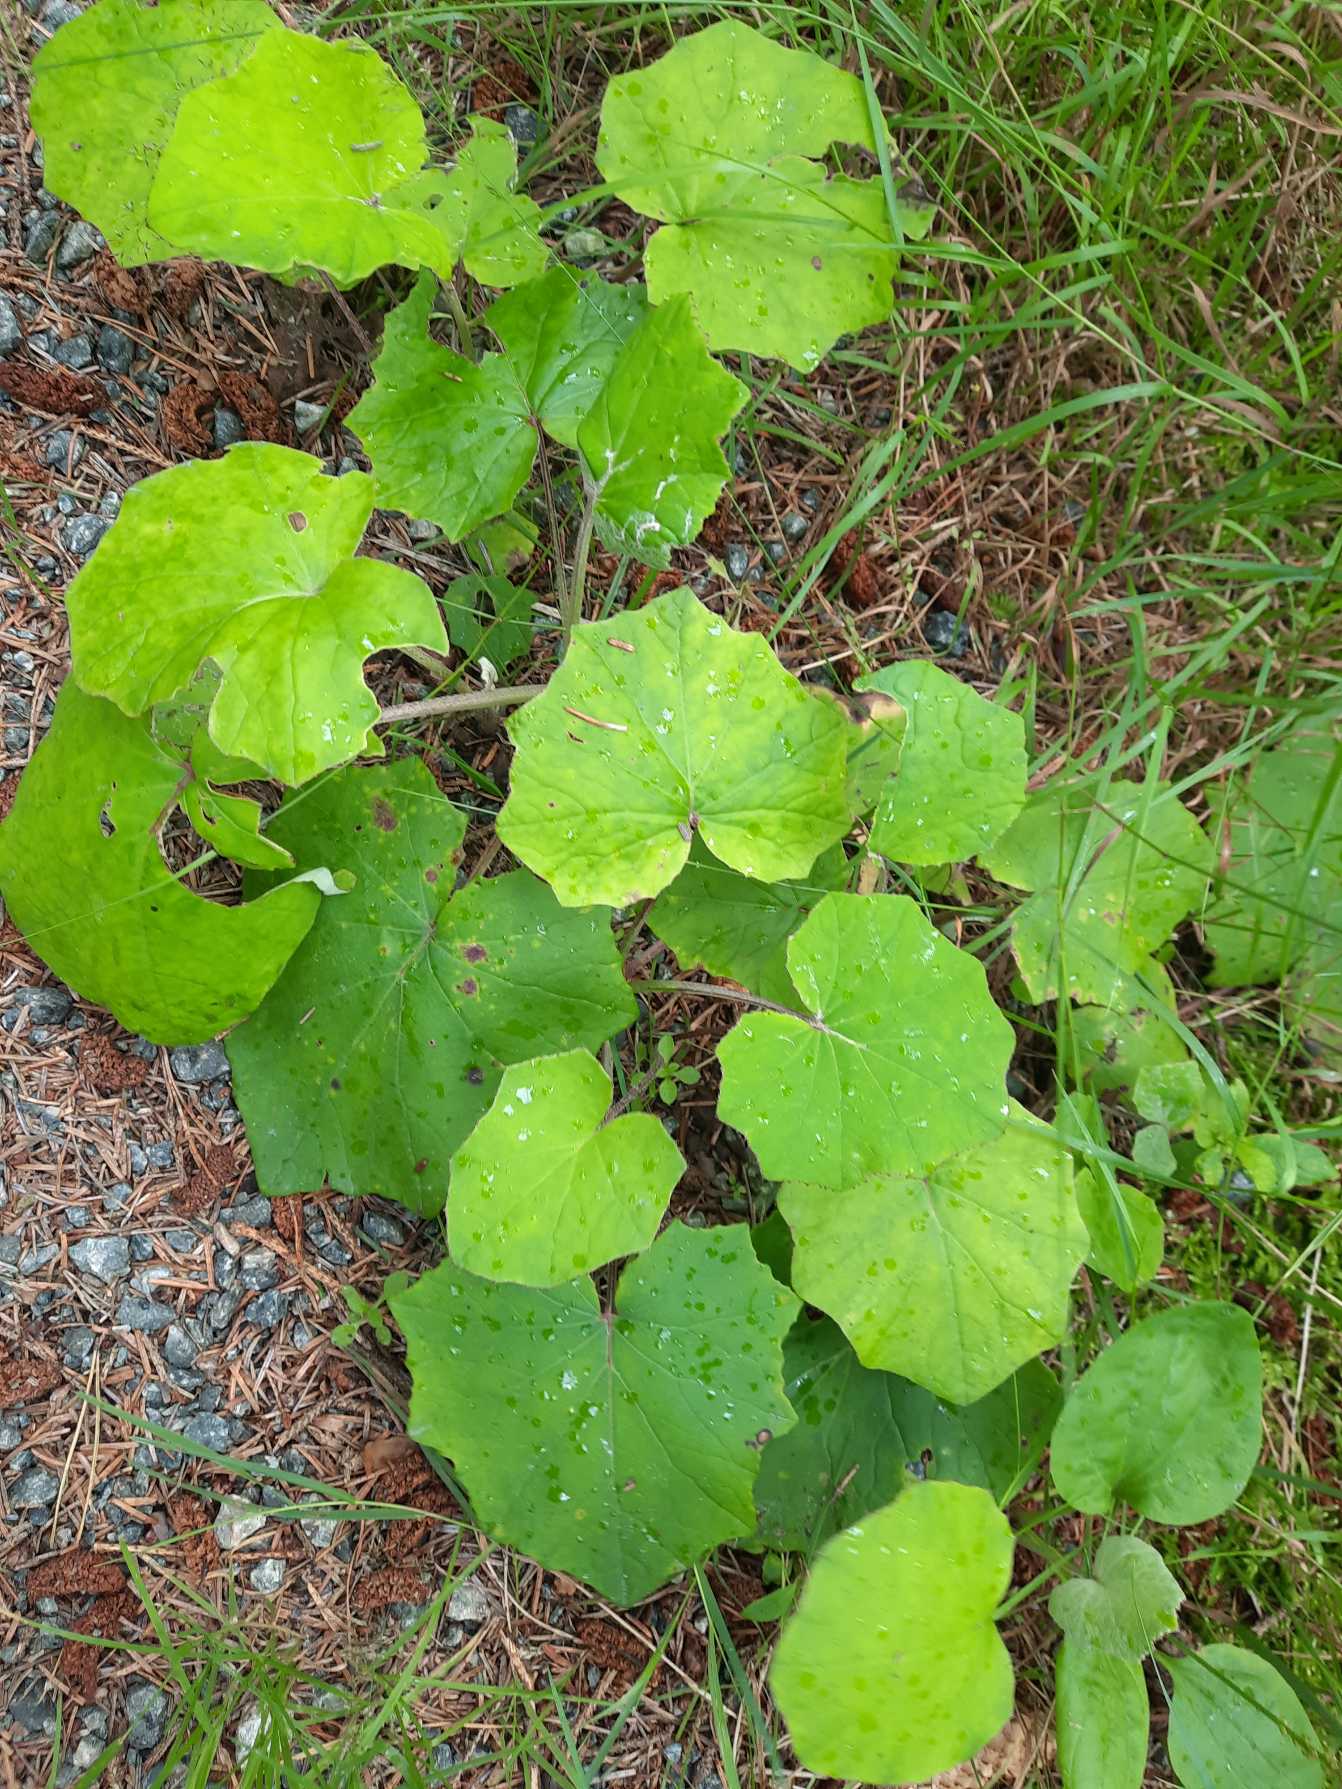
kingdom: Plantae
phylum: Tracheophyta
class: Magnoliopsida
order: Asterales
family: Asteraceae
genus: Tussilago
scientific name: Tussilago farfara
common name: Følfod
